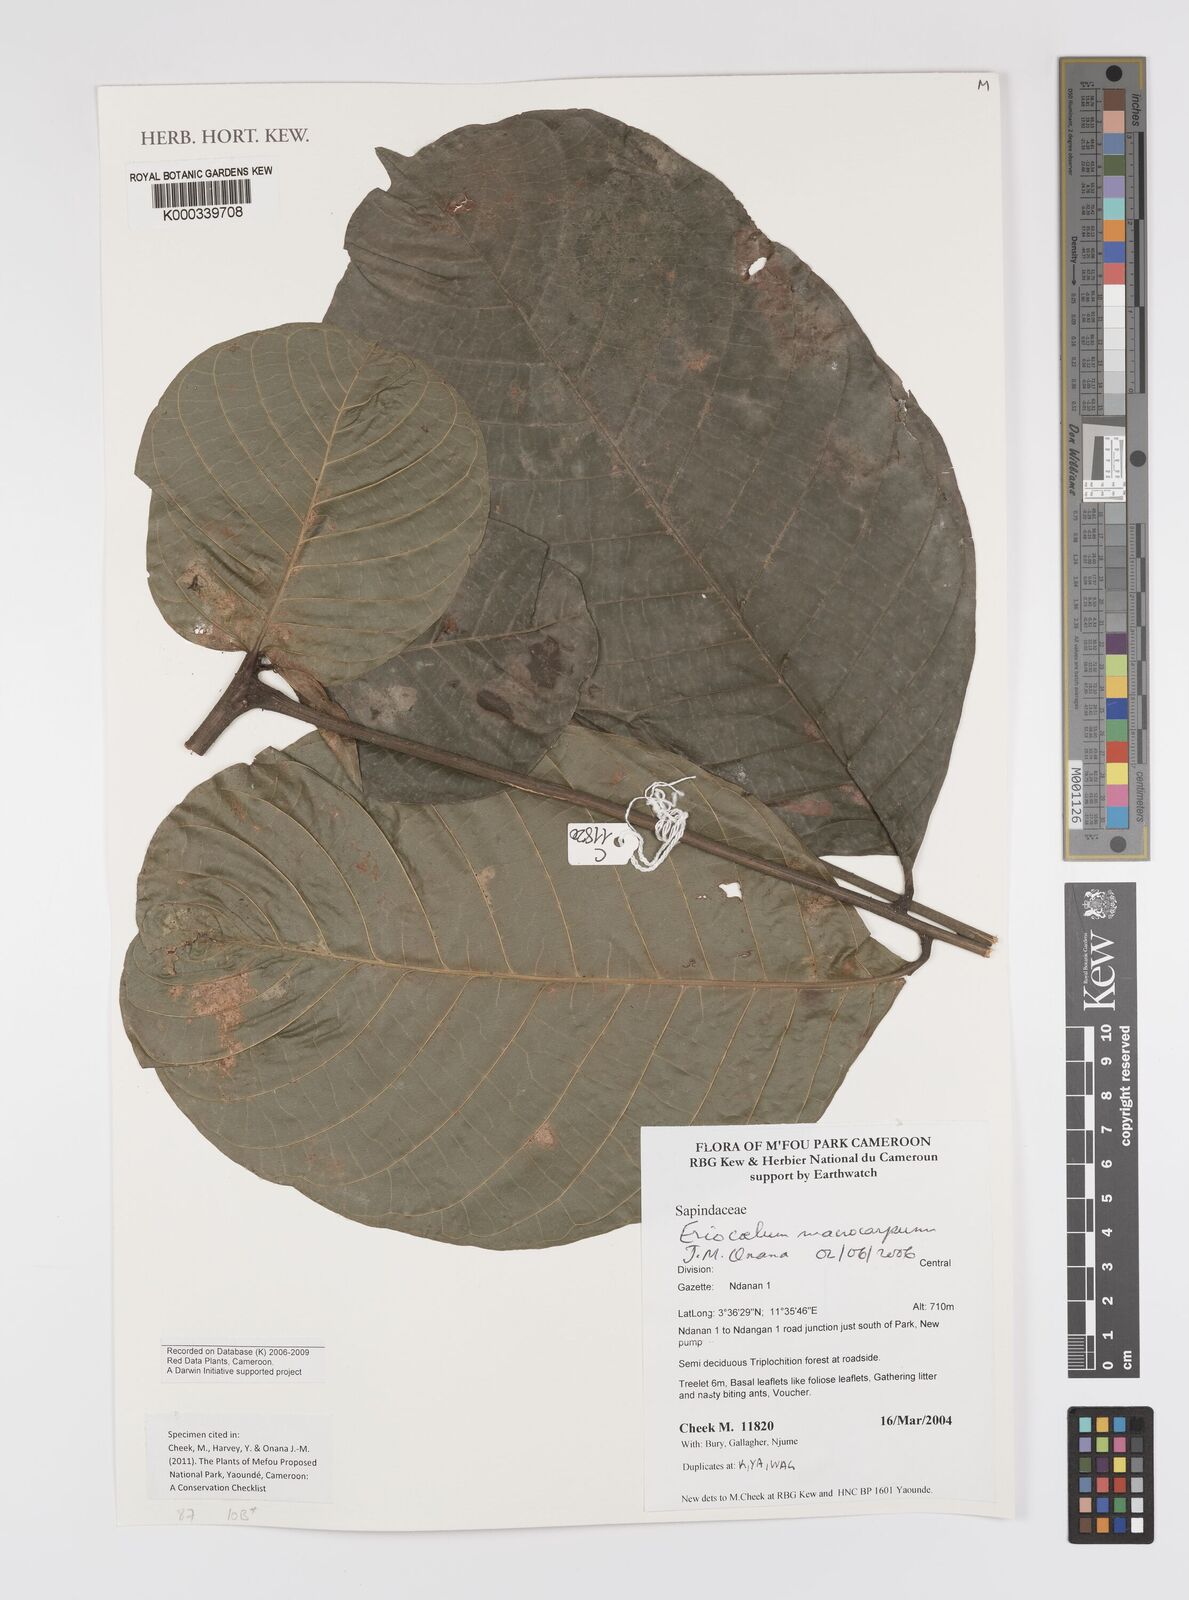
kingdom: Plantae
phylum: Tracheophyta
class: Magnoliopsida
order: Sapindales
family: Sapindaceae
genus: Eriocoelum
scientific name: Eriocoelum
